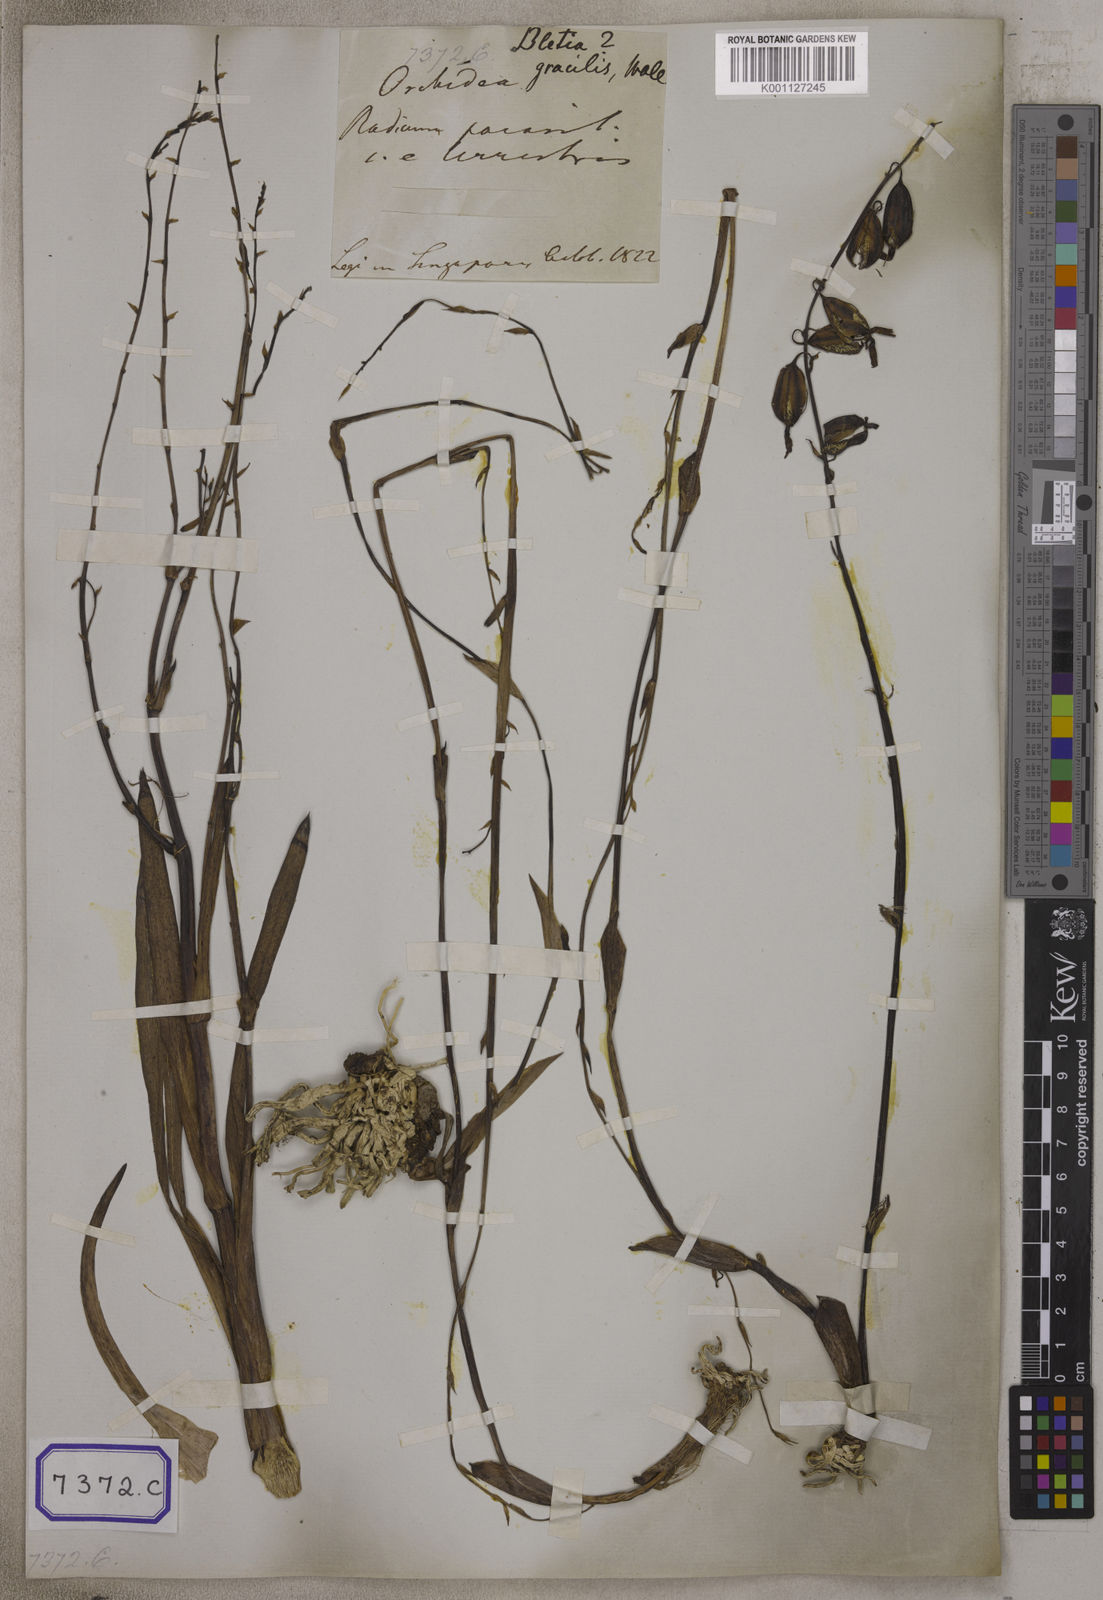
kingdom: Plantae
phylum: Tracheophyta
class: Liliopsida
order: Asparagales
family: Orchidaceae
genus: Eulophia
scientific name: Eulophia graminea
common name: Orchid
